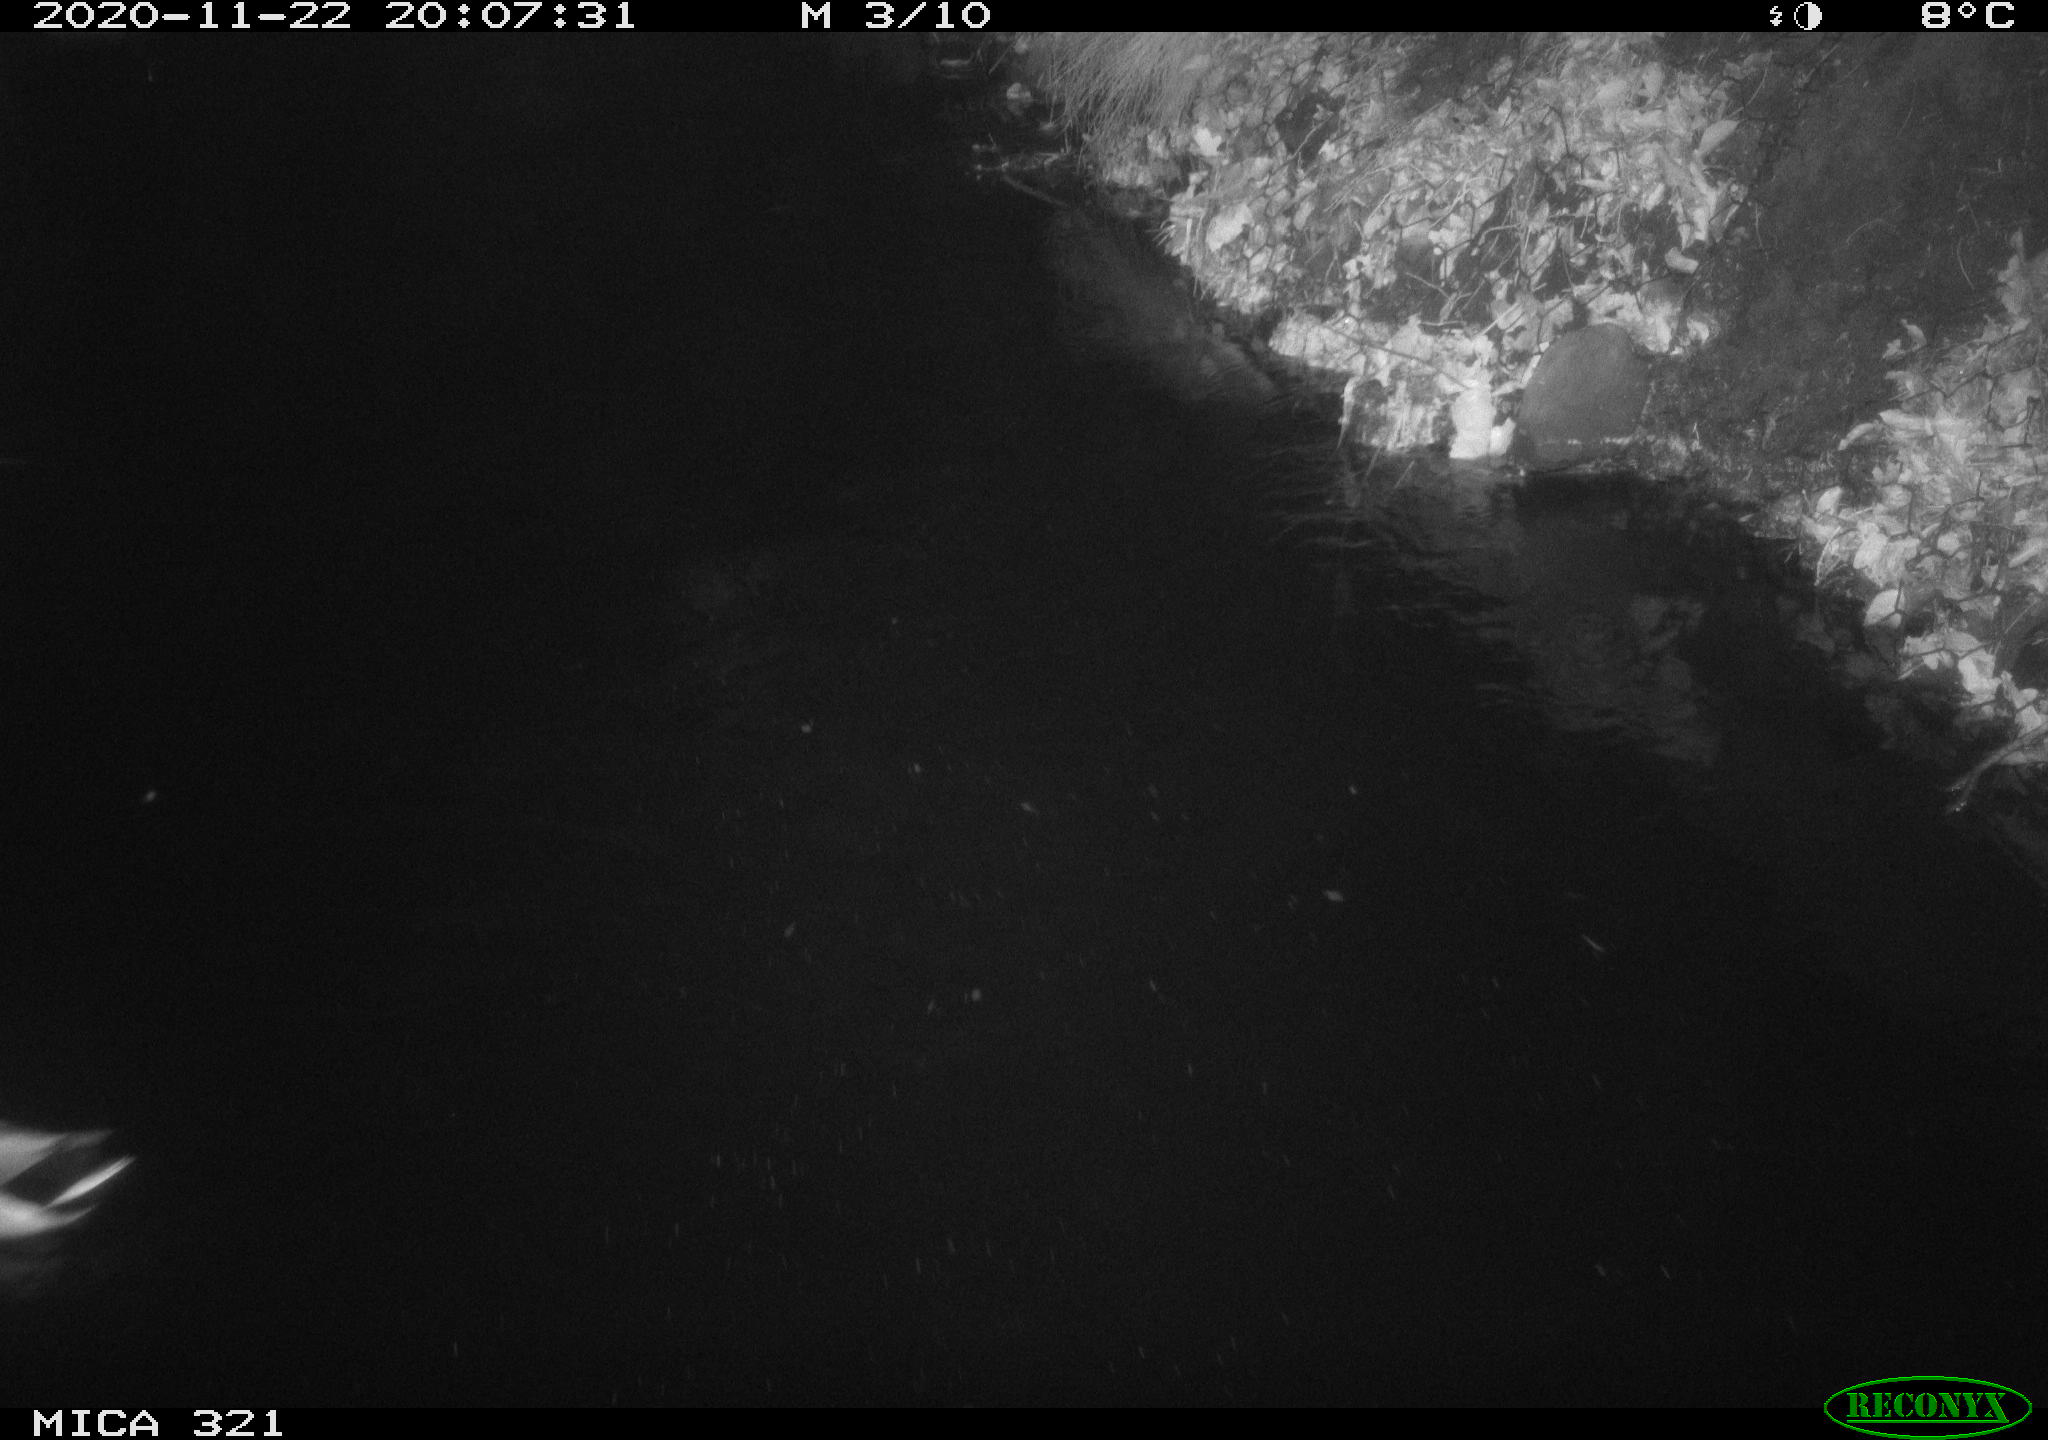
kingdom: Animalia
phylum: Chordata
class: Aves
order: Anseriformes
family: Anatidae
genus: Anas
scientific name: Anas platyrhynchos
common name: Mallard
